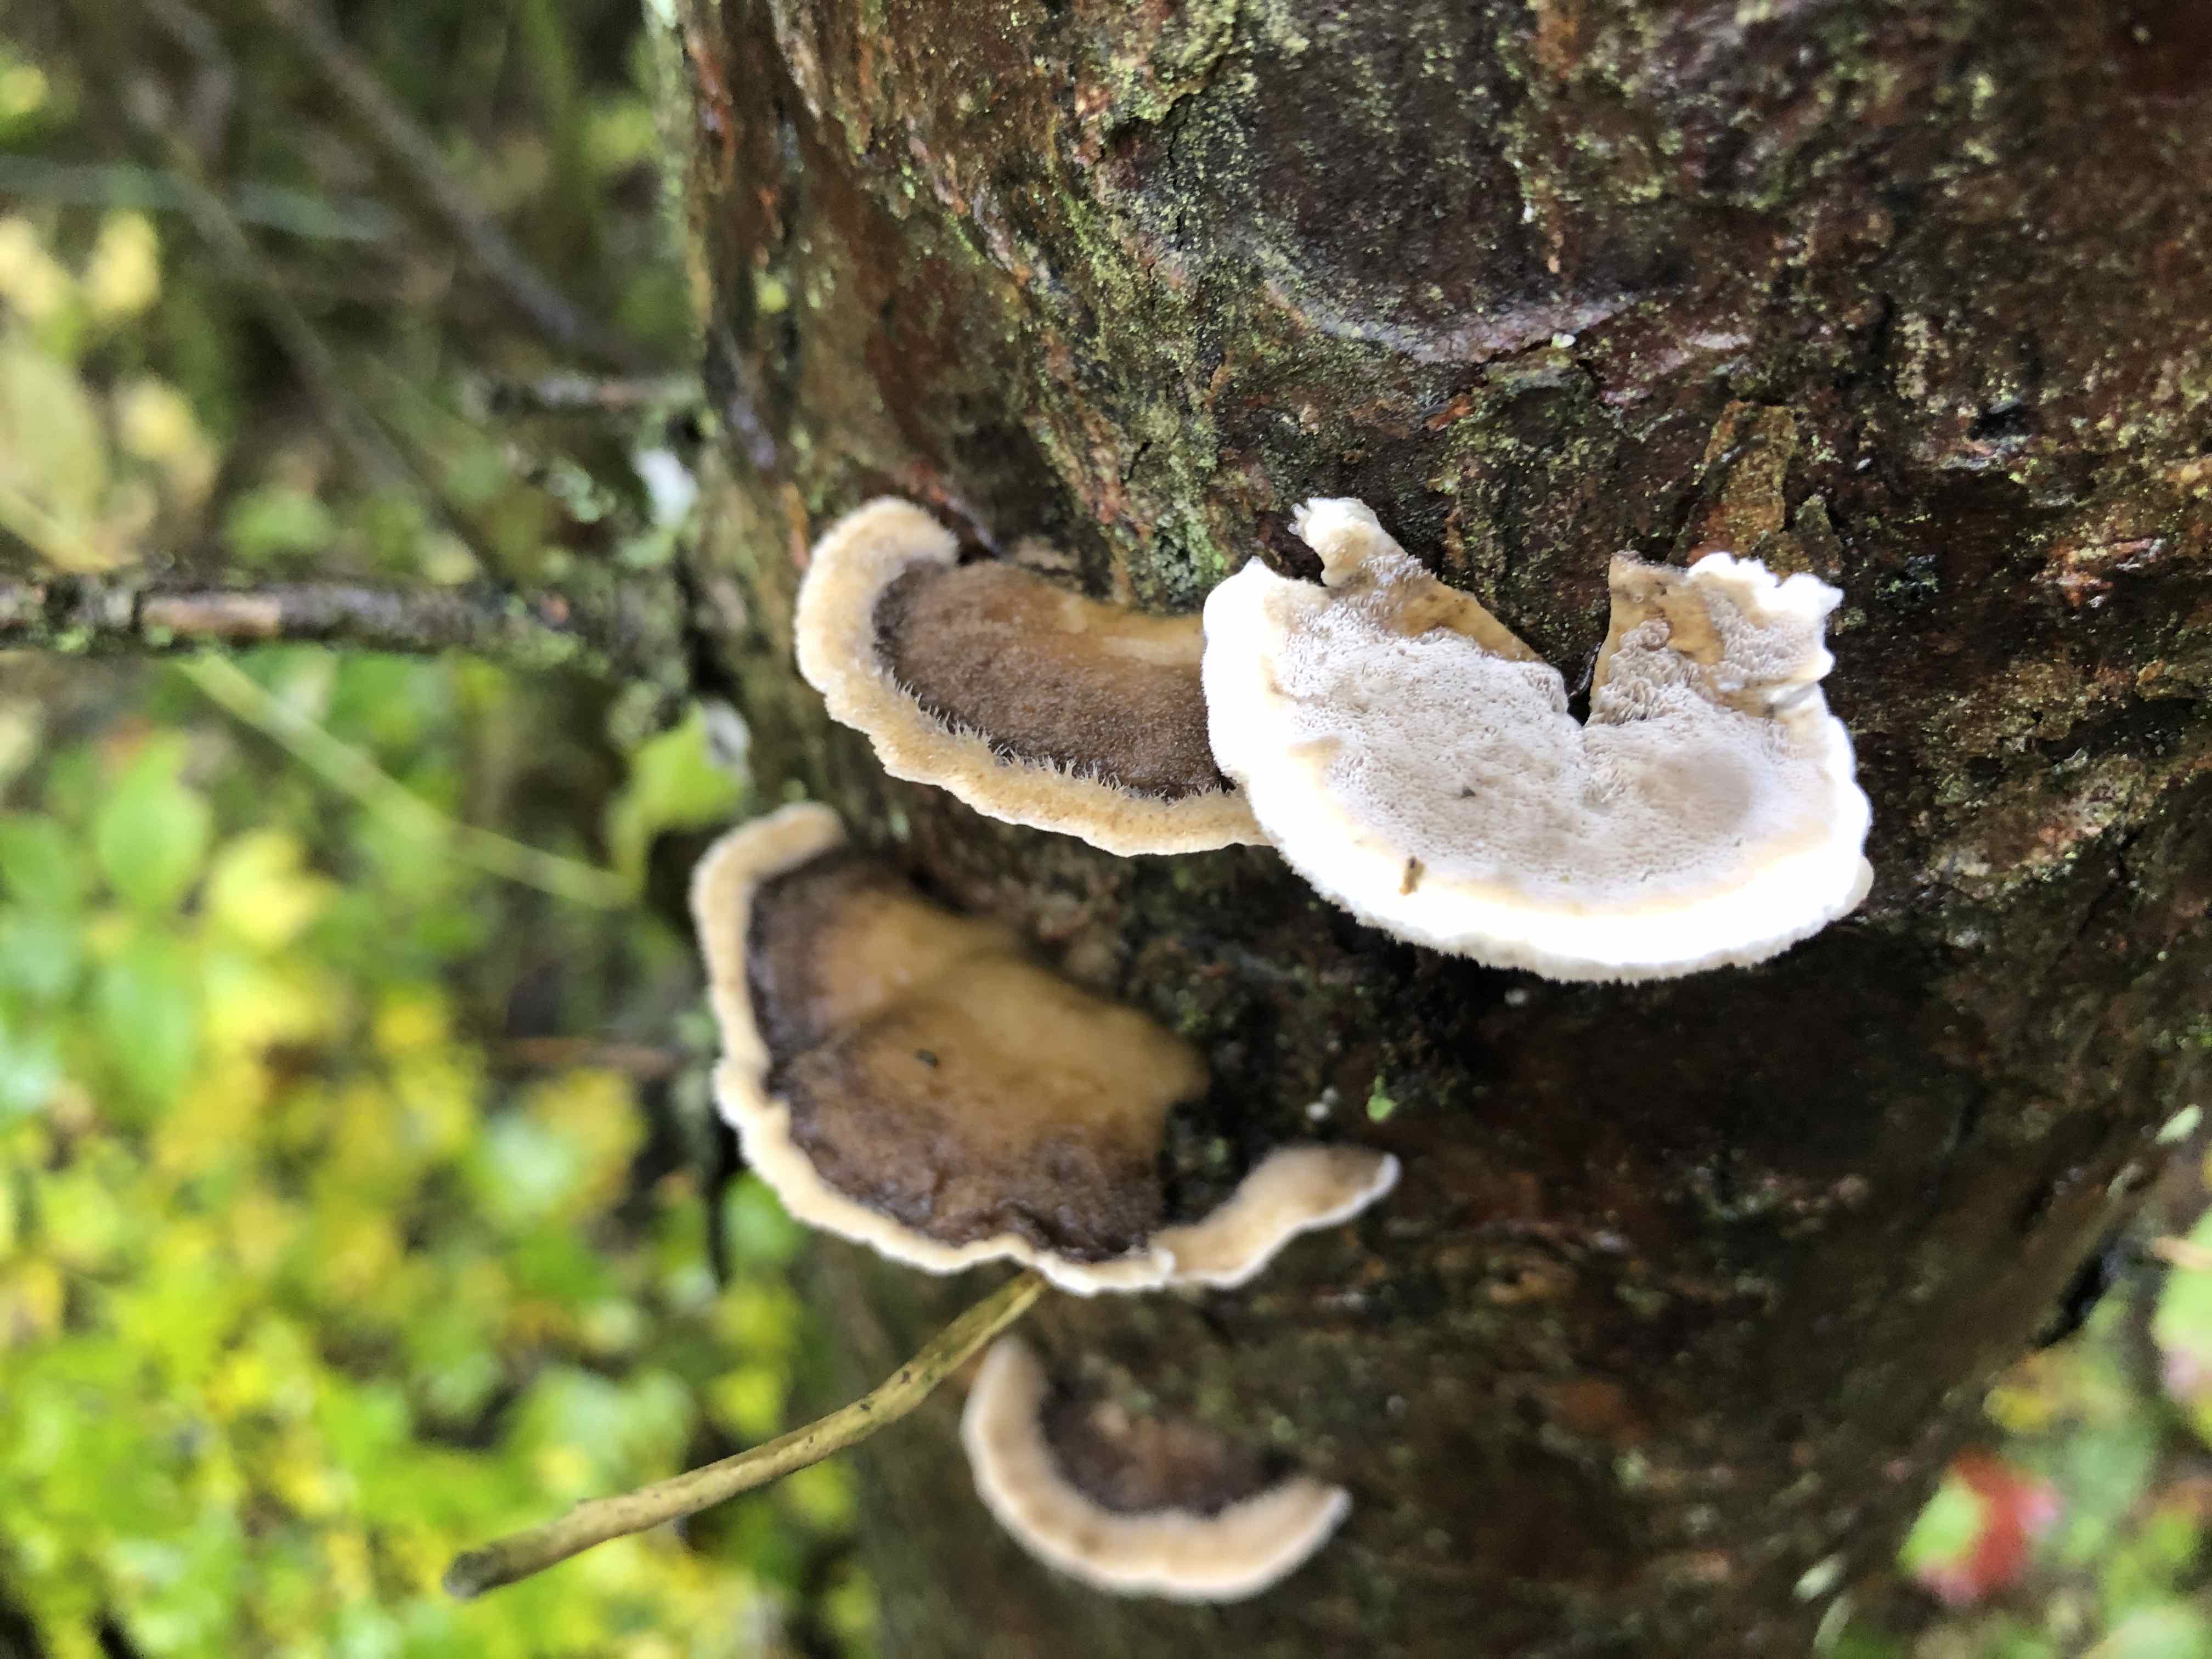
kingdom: Fungi
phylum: Basidiomycota
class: Agaricomycetes
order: Polyporales
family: Phanerochaetaceae
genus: Bjerkandera
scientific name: Bjerkandera adusta
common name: sveden sodporesvamp
